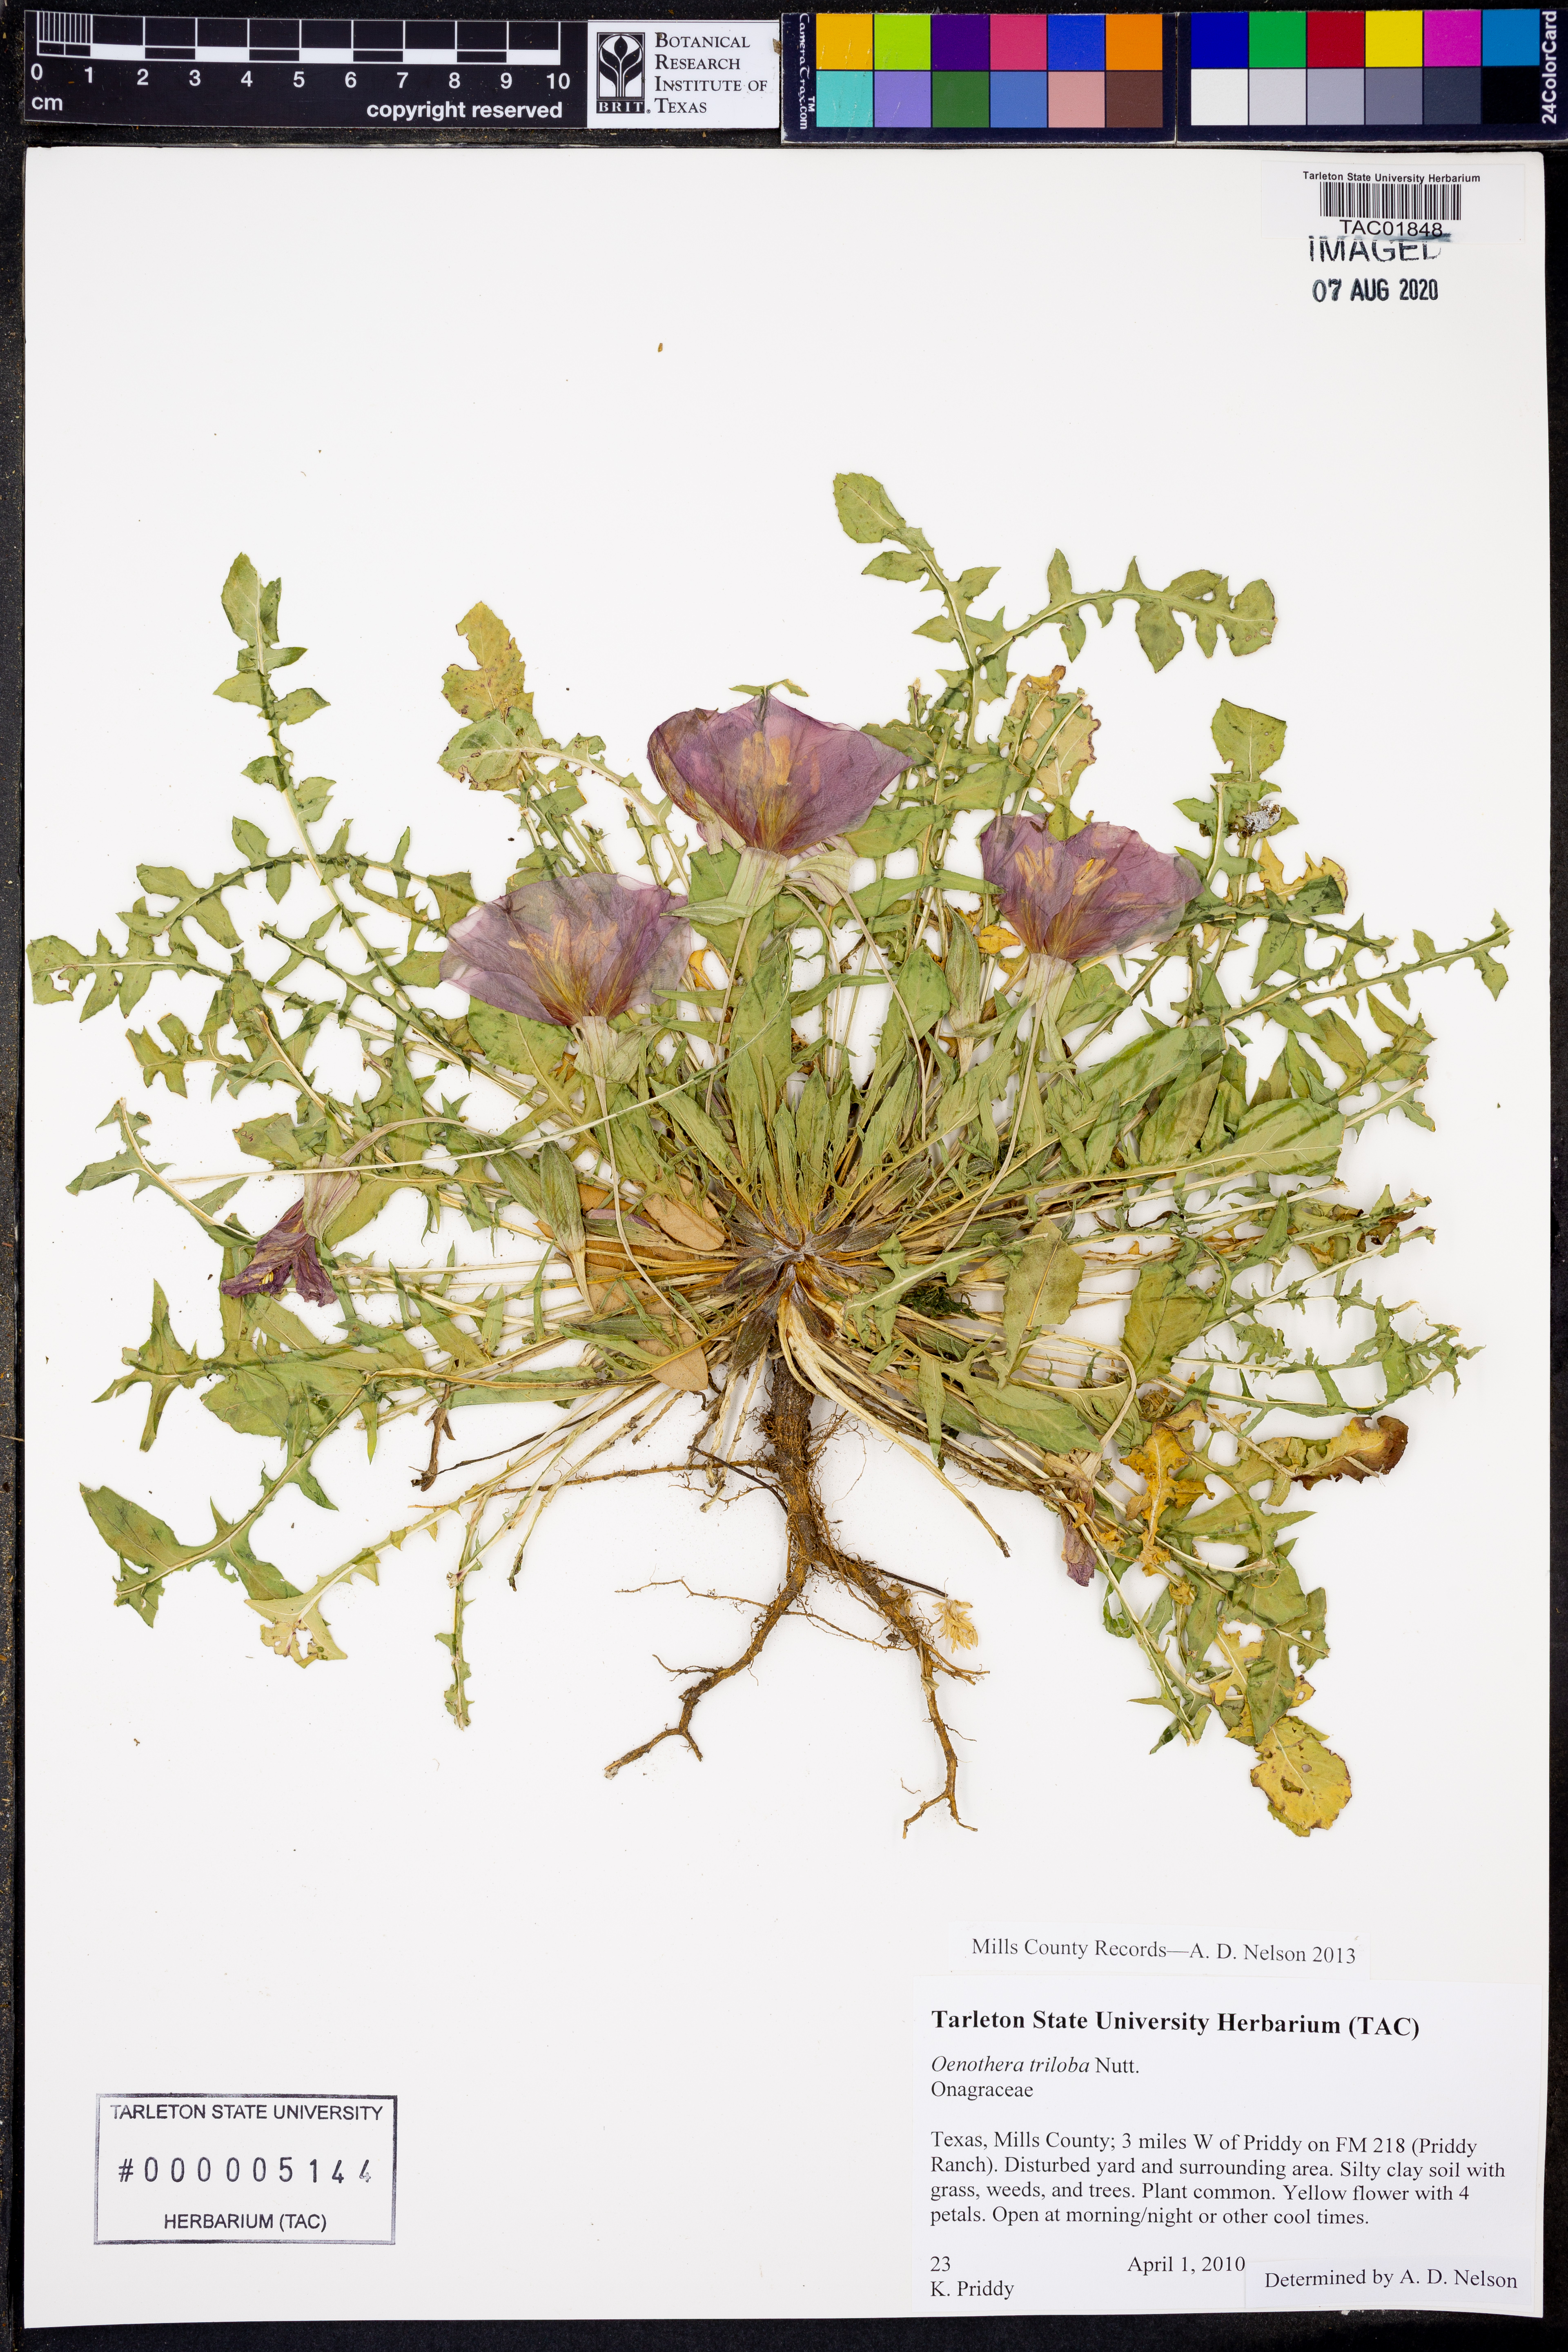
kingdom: Plantae
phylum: Tracheophyta
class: Magnoliopsida
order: Myrtales
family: Onagraceae
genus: Oenothera
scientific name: Oenothera triloba
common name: Sessile evening-primrose
